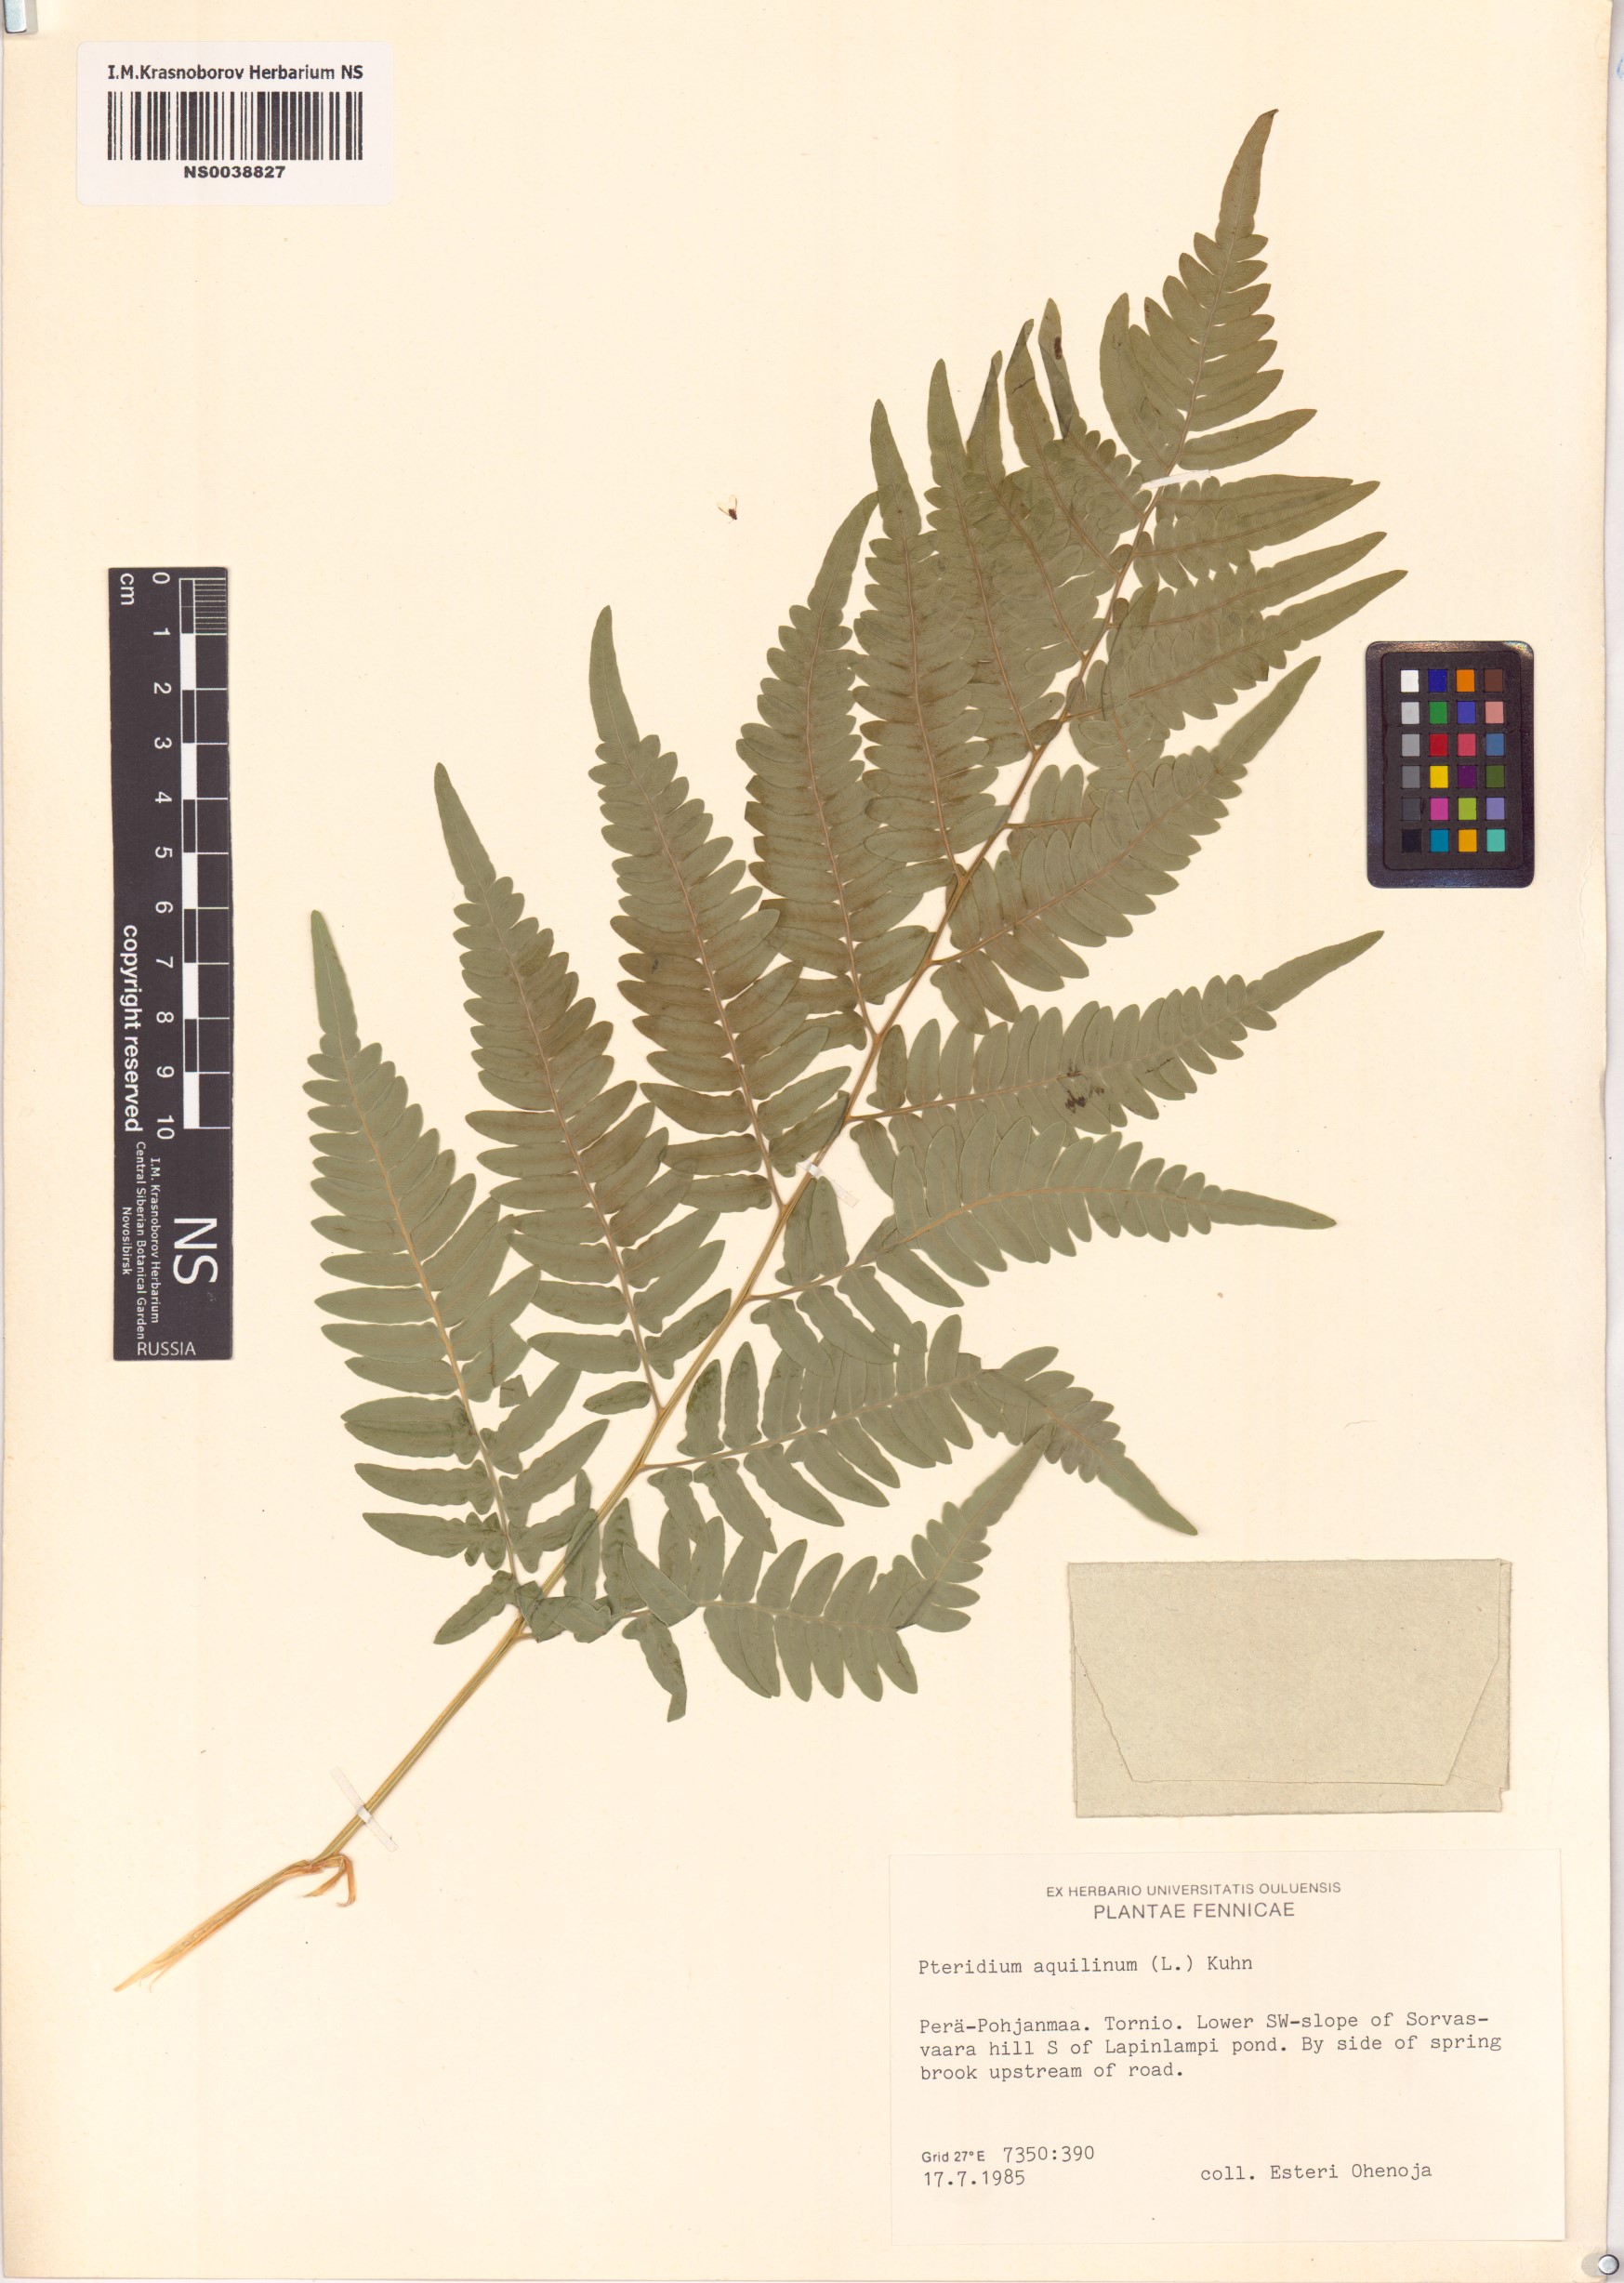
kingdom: Plantae
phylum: Tracheophyta
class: Polypodiopsida
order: Polypodiales
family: Dennstaedtiaceae
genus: Pteridium
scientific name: Pteridium aquilinum
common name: Bracken
